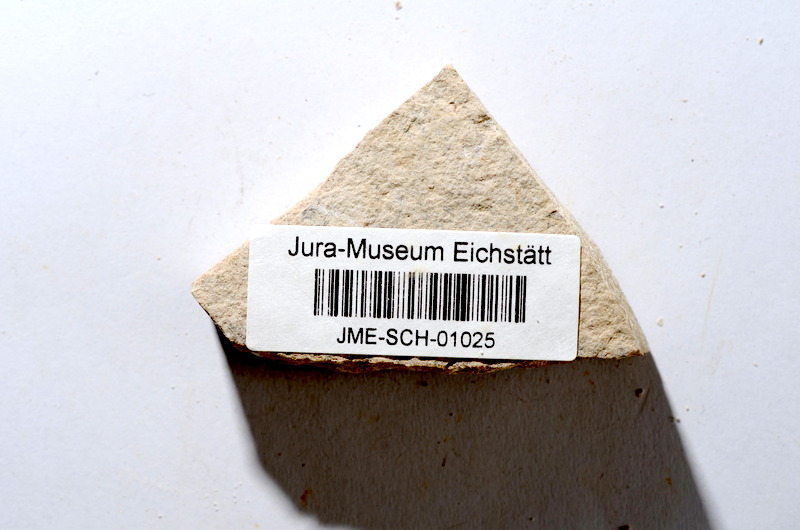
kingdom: Animalia
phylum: Chordata
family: Ascalaboidae
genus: Tharsis
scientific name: Tharsis dubius
